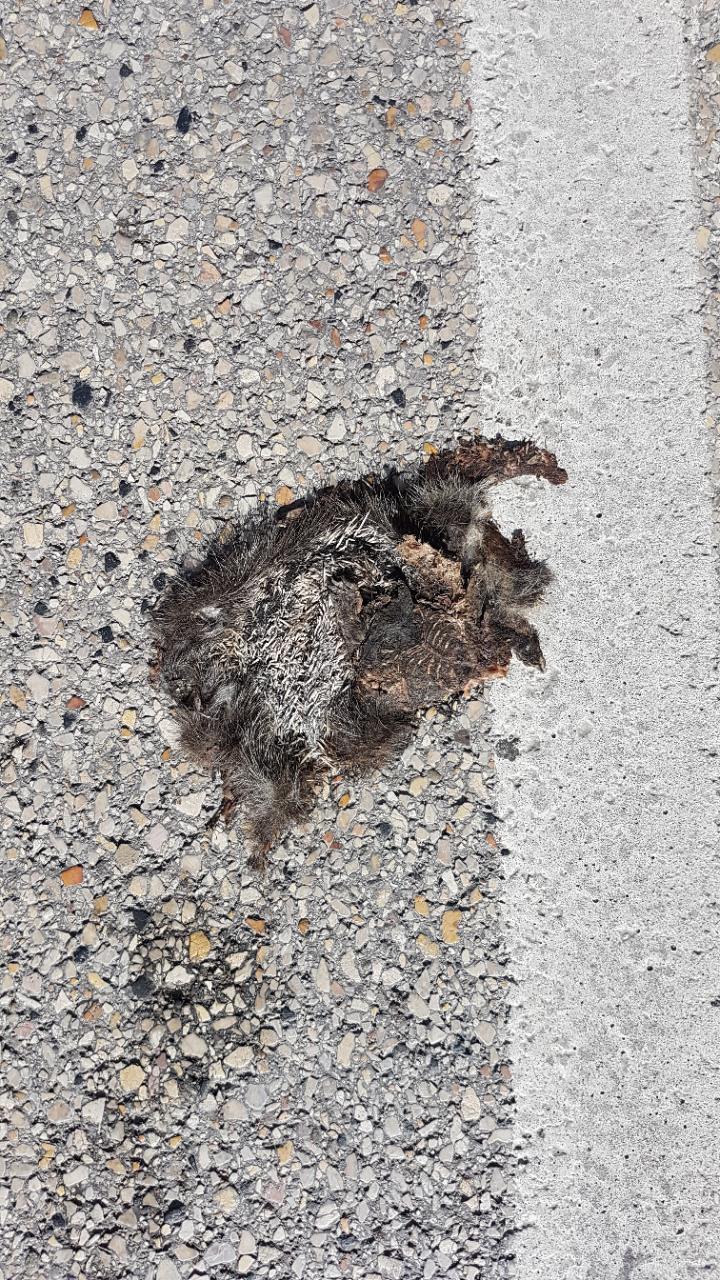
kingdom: Animalia
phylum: Chordata
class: Mammalia
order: Erinaceomorpha
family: Erinaceidae
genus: Erinaceus
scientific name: Erinaceus
